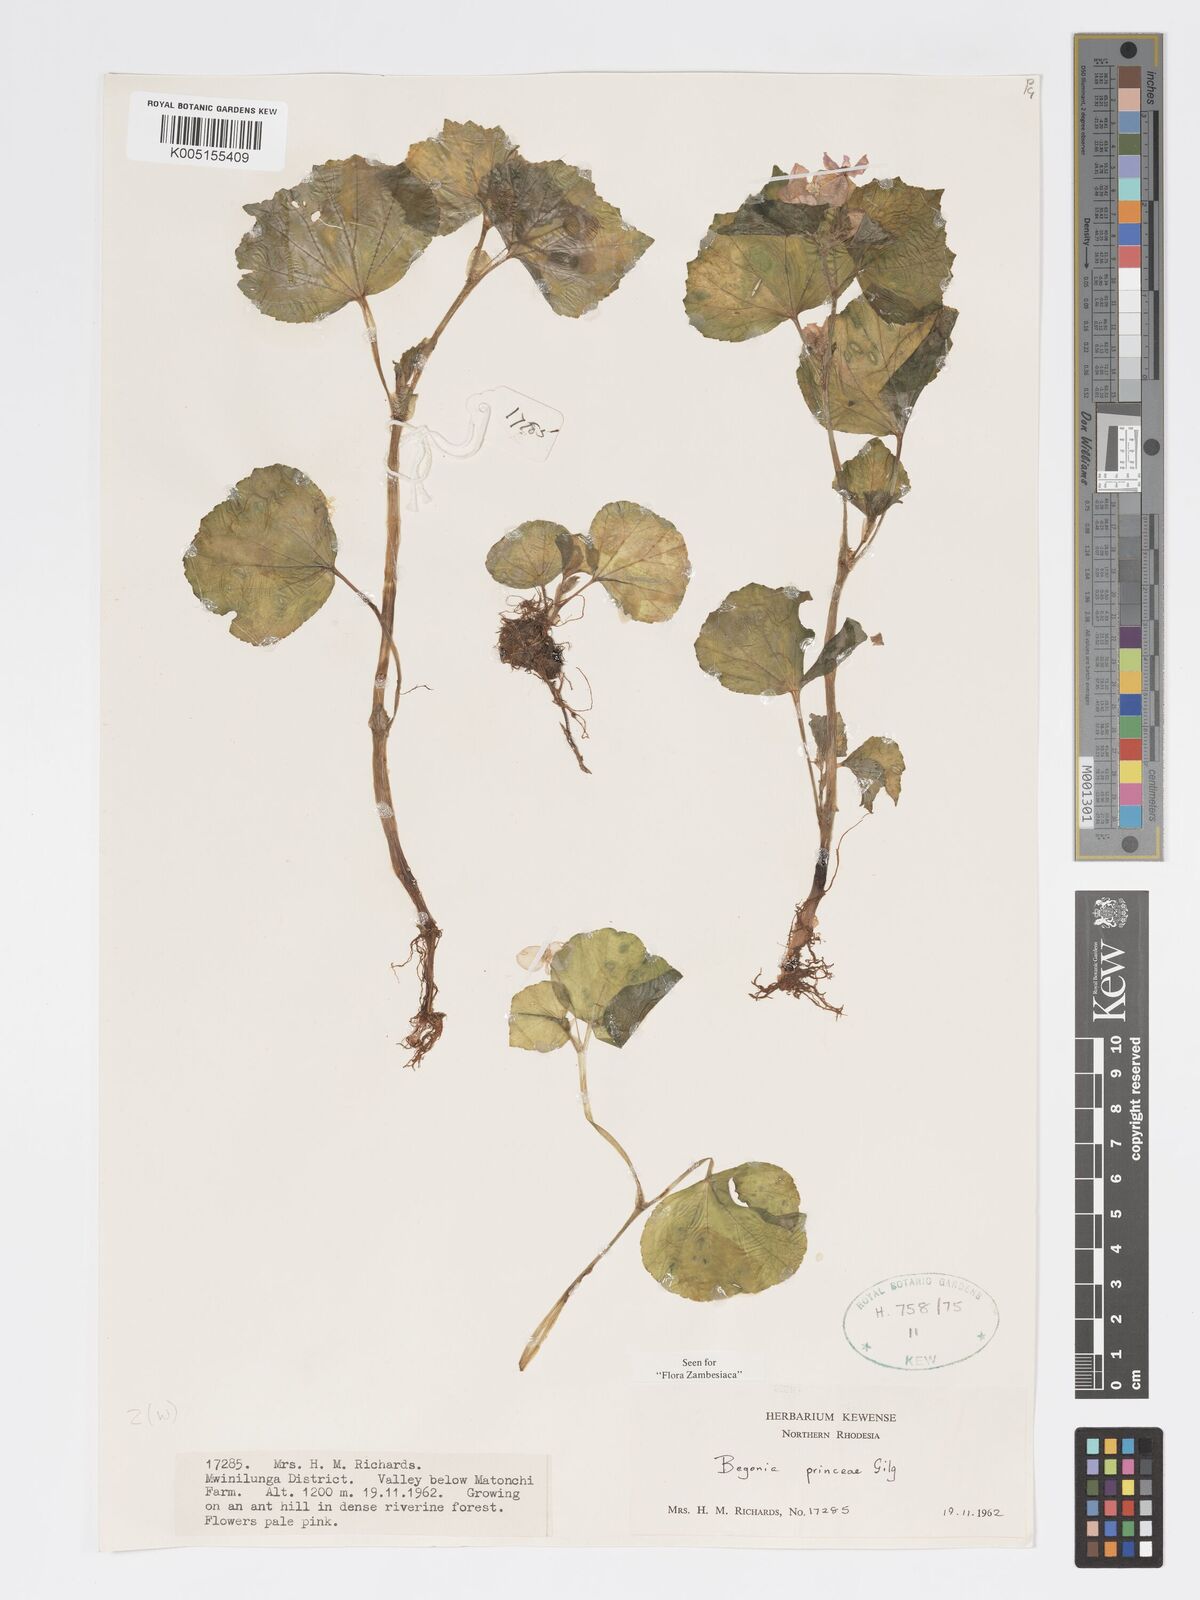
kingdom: Plantae
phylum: Tracheophyta
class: Magnoliopsida
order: Cucurbitales
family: Begoniaceae
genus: Begonia
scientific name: Begonia princeae
